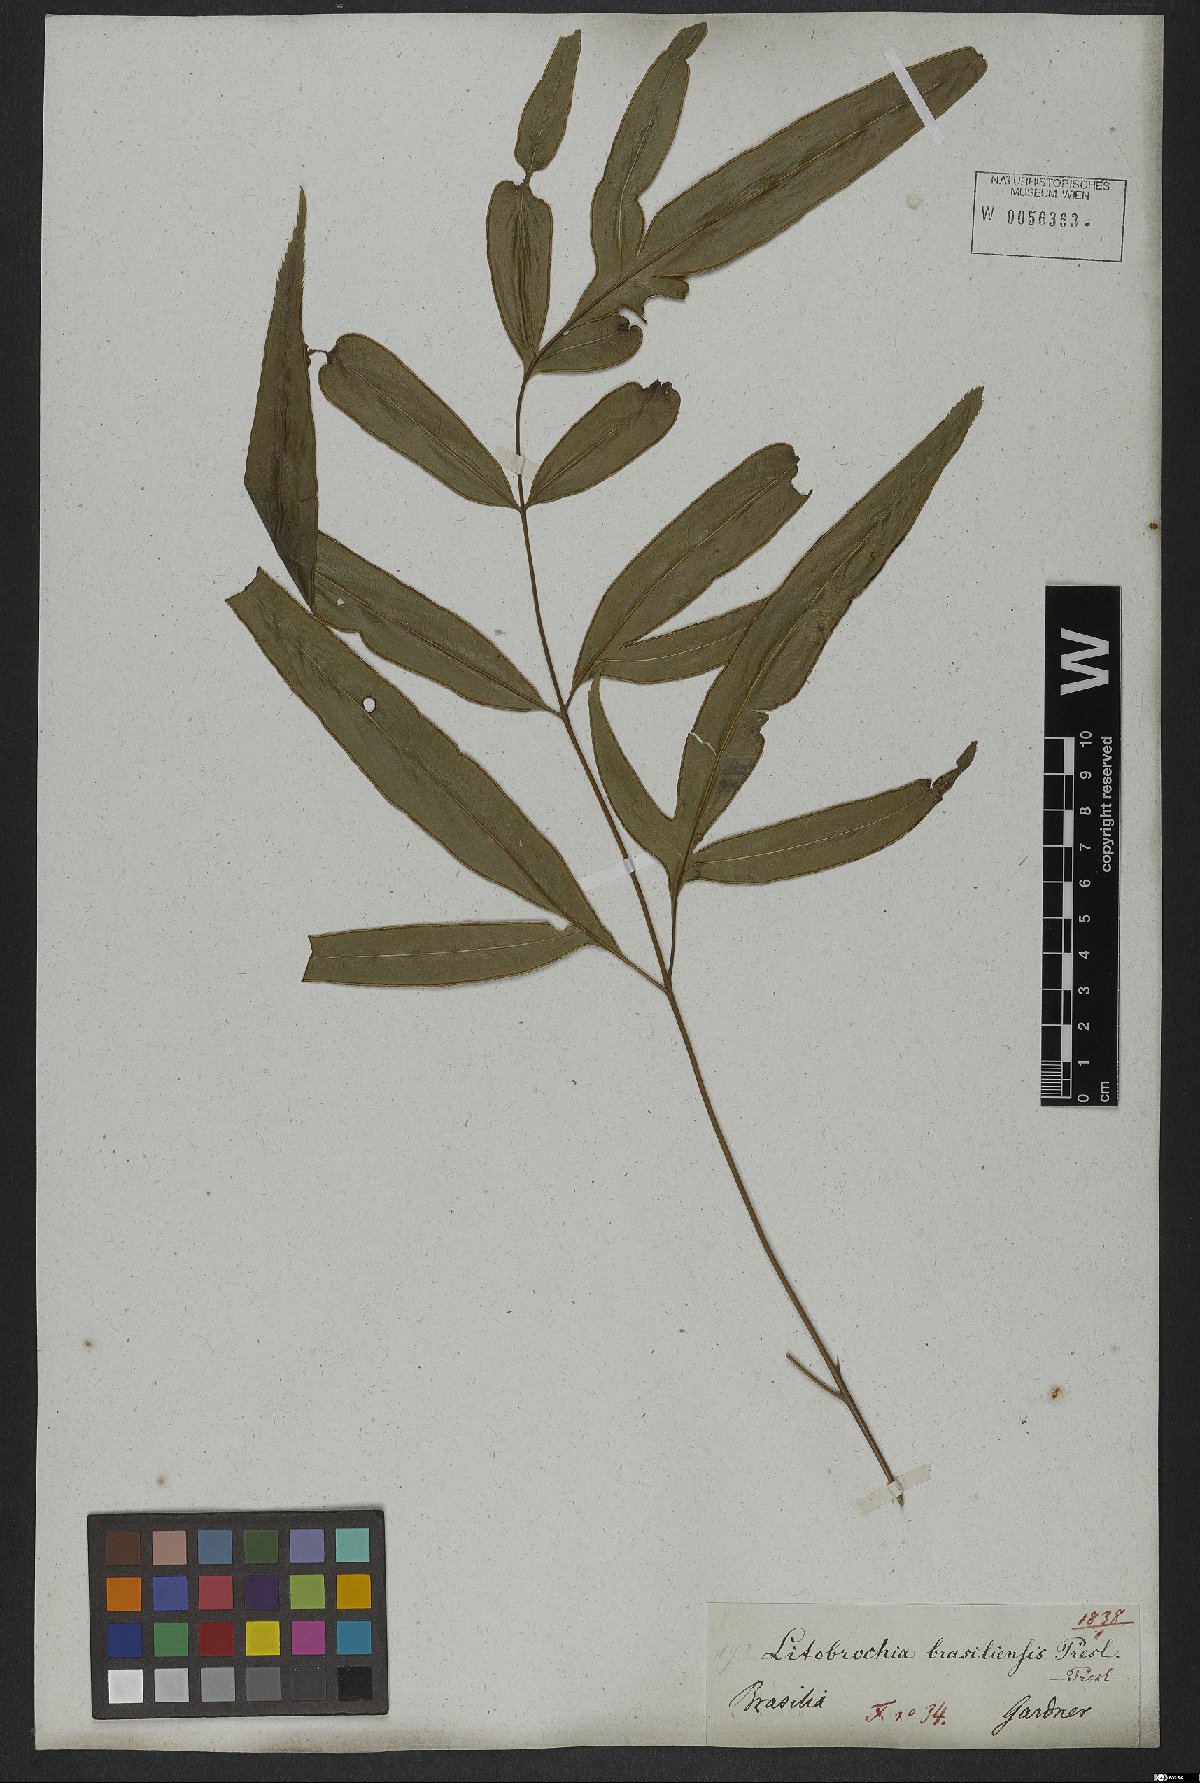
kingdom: Plantae
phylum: Tracheophyta
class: Polypodiopsida
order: Polypodiales
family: Pteridaceae
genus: Pteris
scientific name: Pteris denticulata
